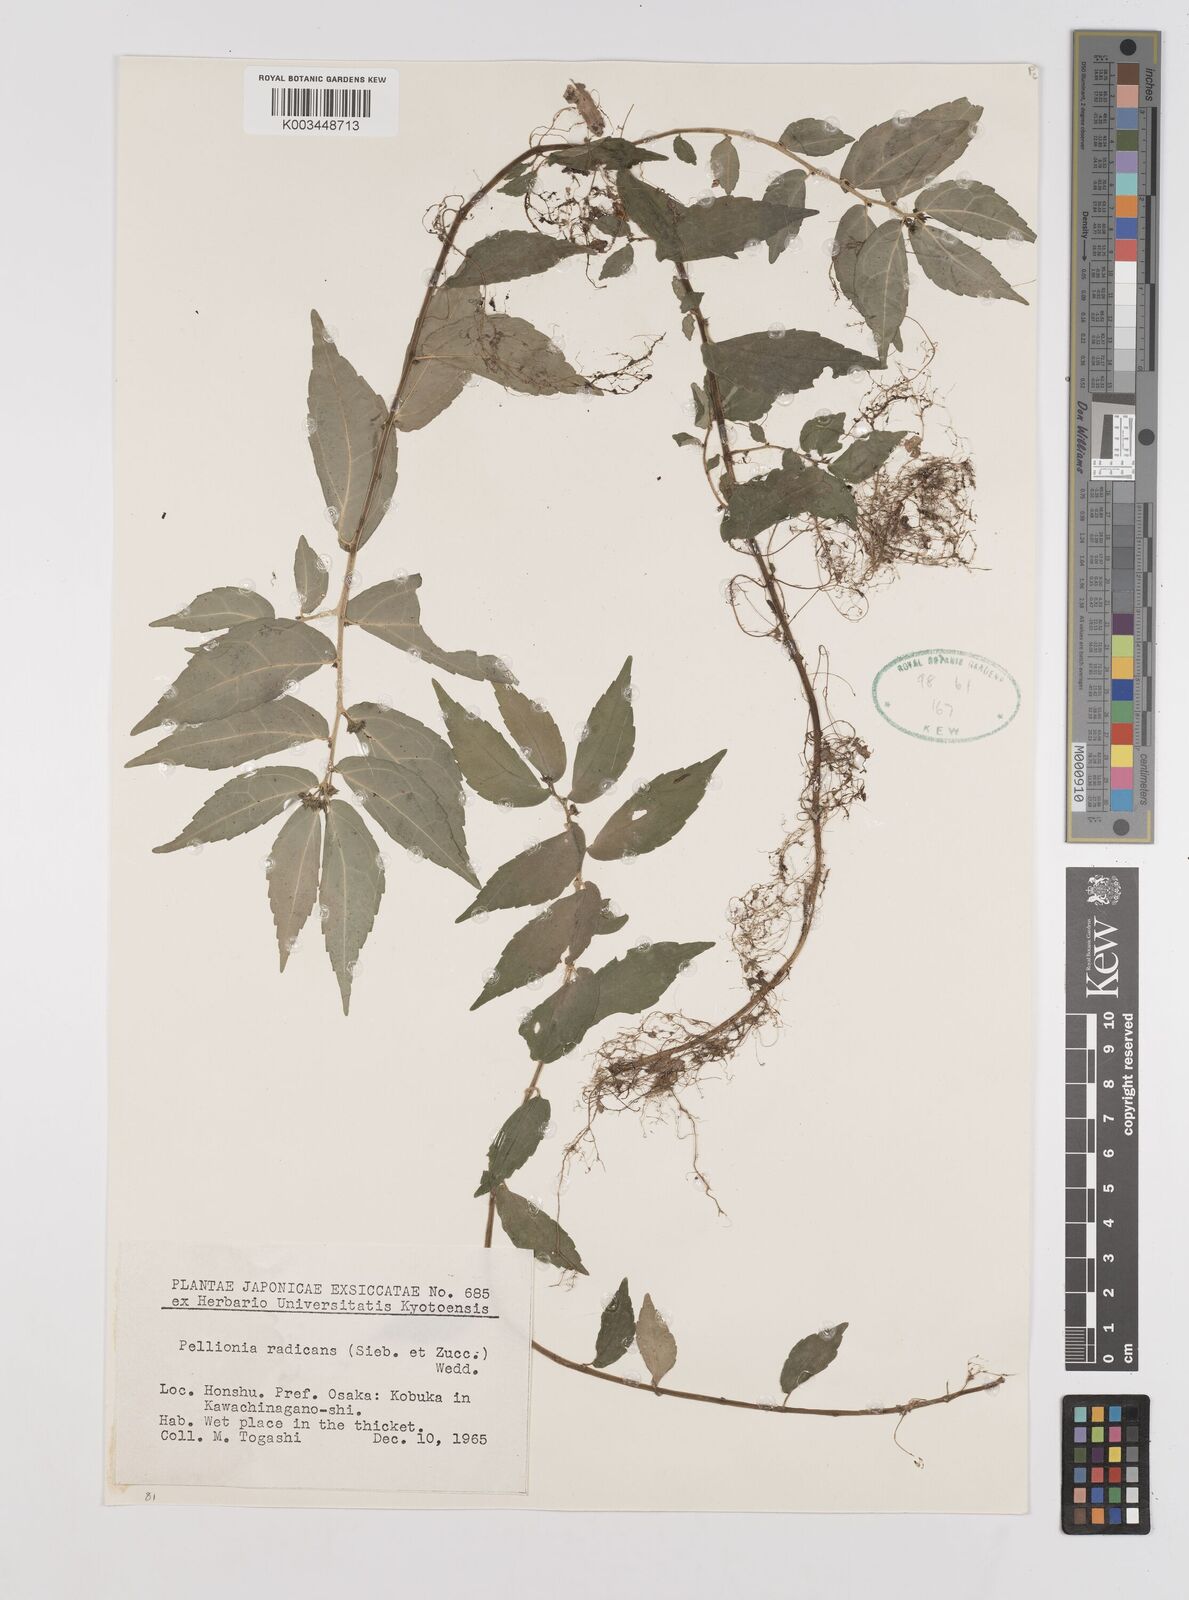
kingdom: Plantae
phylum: Tracheophyta
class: Magnoliopsida
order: Rosales
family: Urticaceae
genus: Elatostema
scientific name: Elatostema radicans
